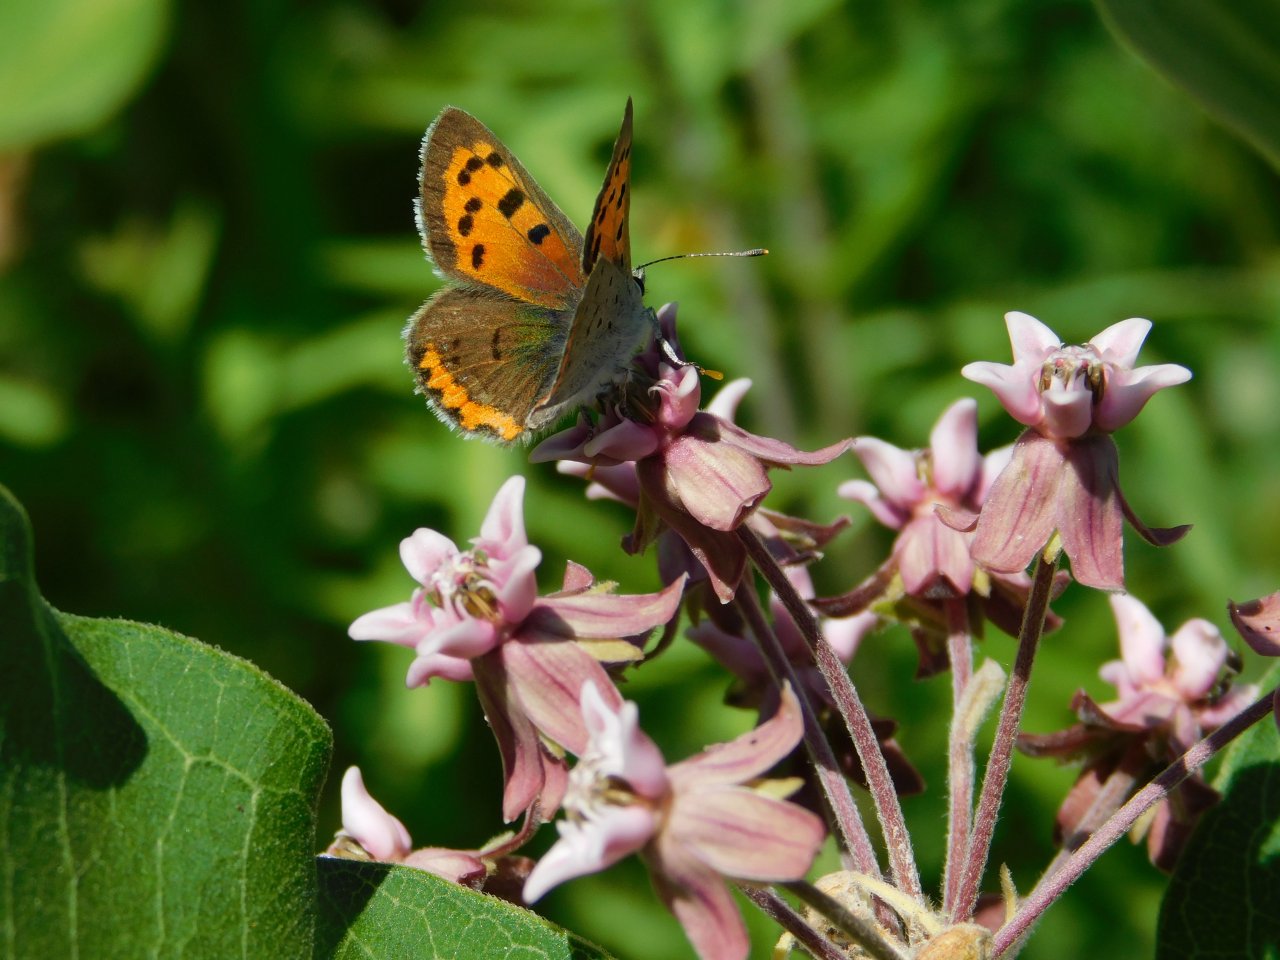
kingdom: Animalia
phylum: Arthropoda
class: Insecta
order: Lepidoptera
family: Lycaenidae
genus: Lycaena
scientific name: Lycaena phlaeas
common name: American Copper
